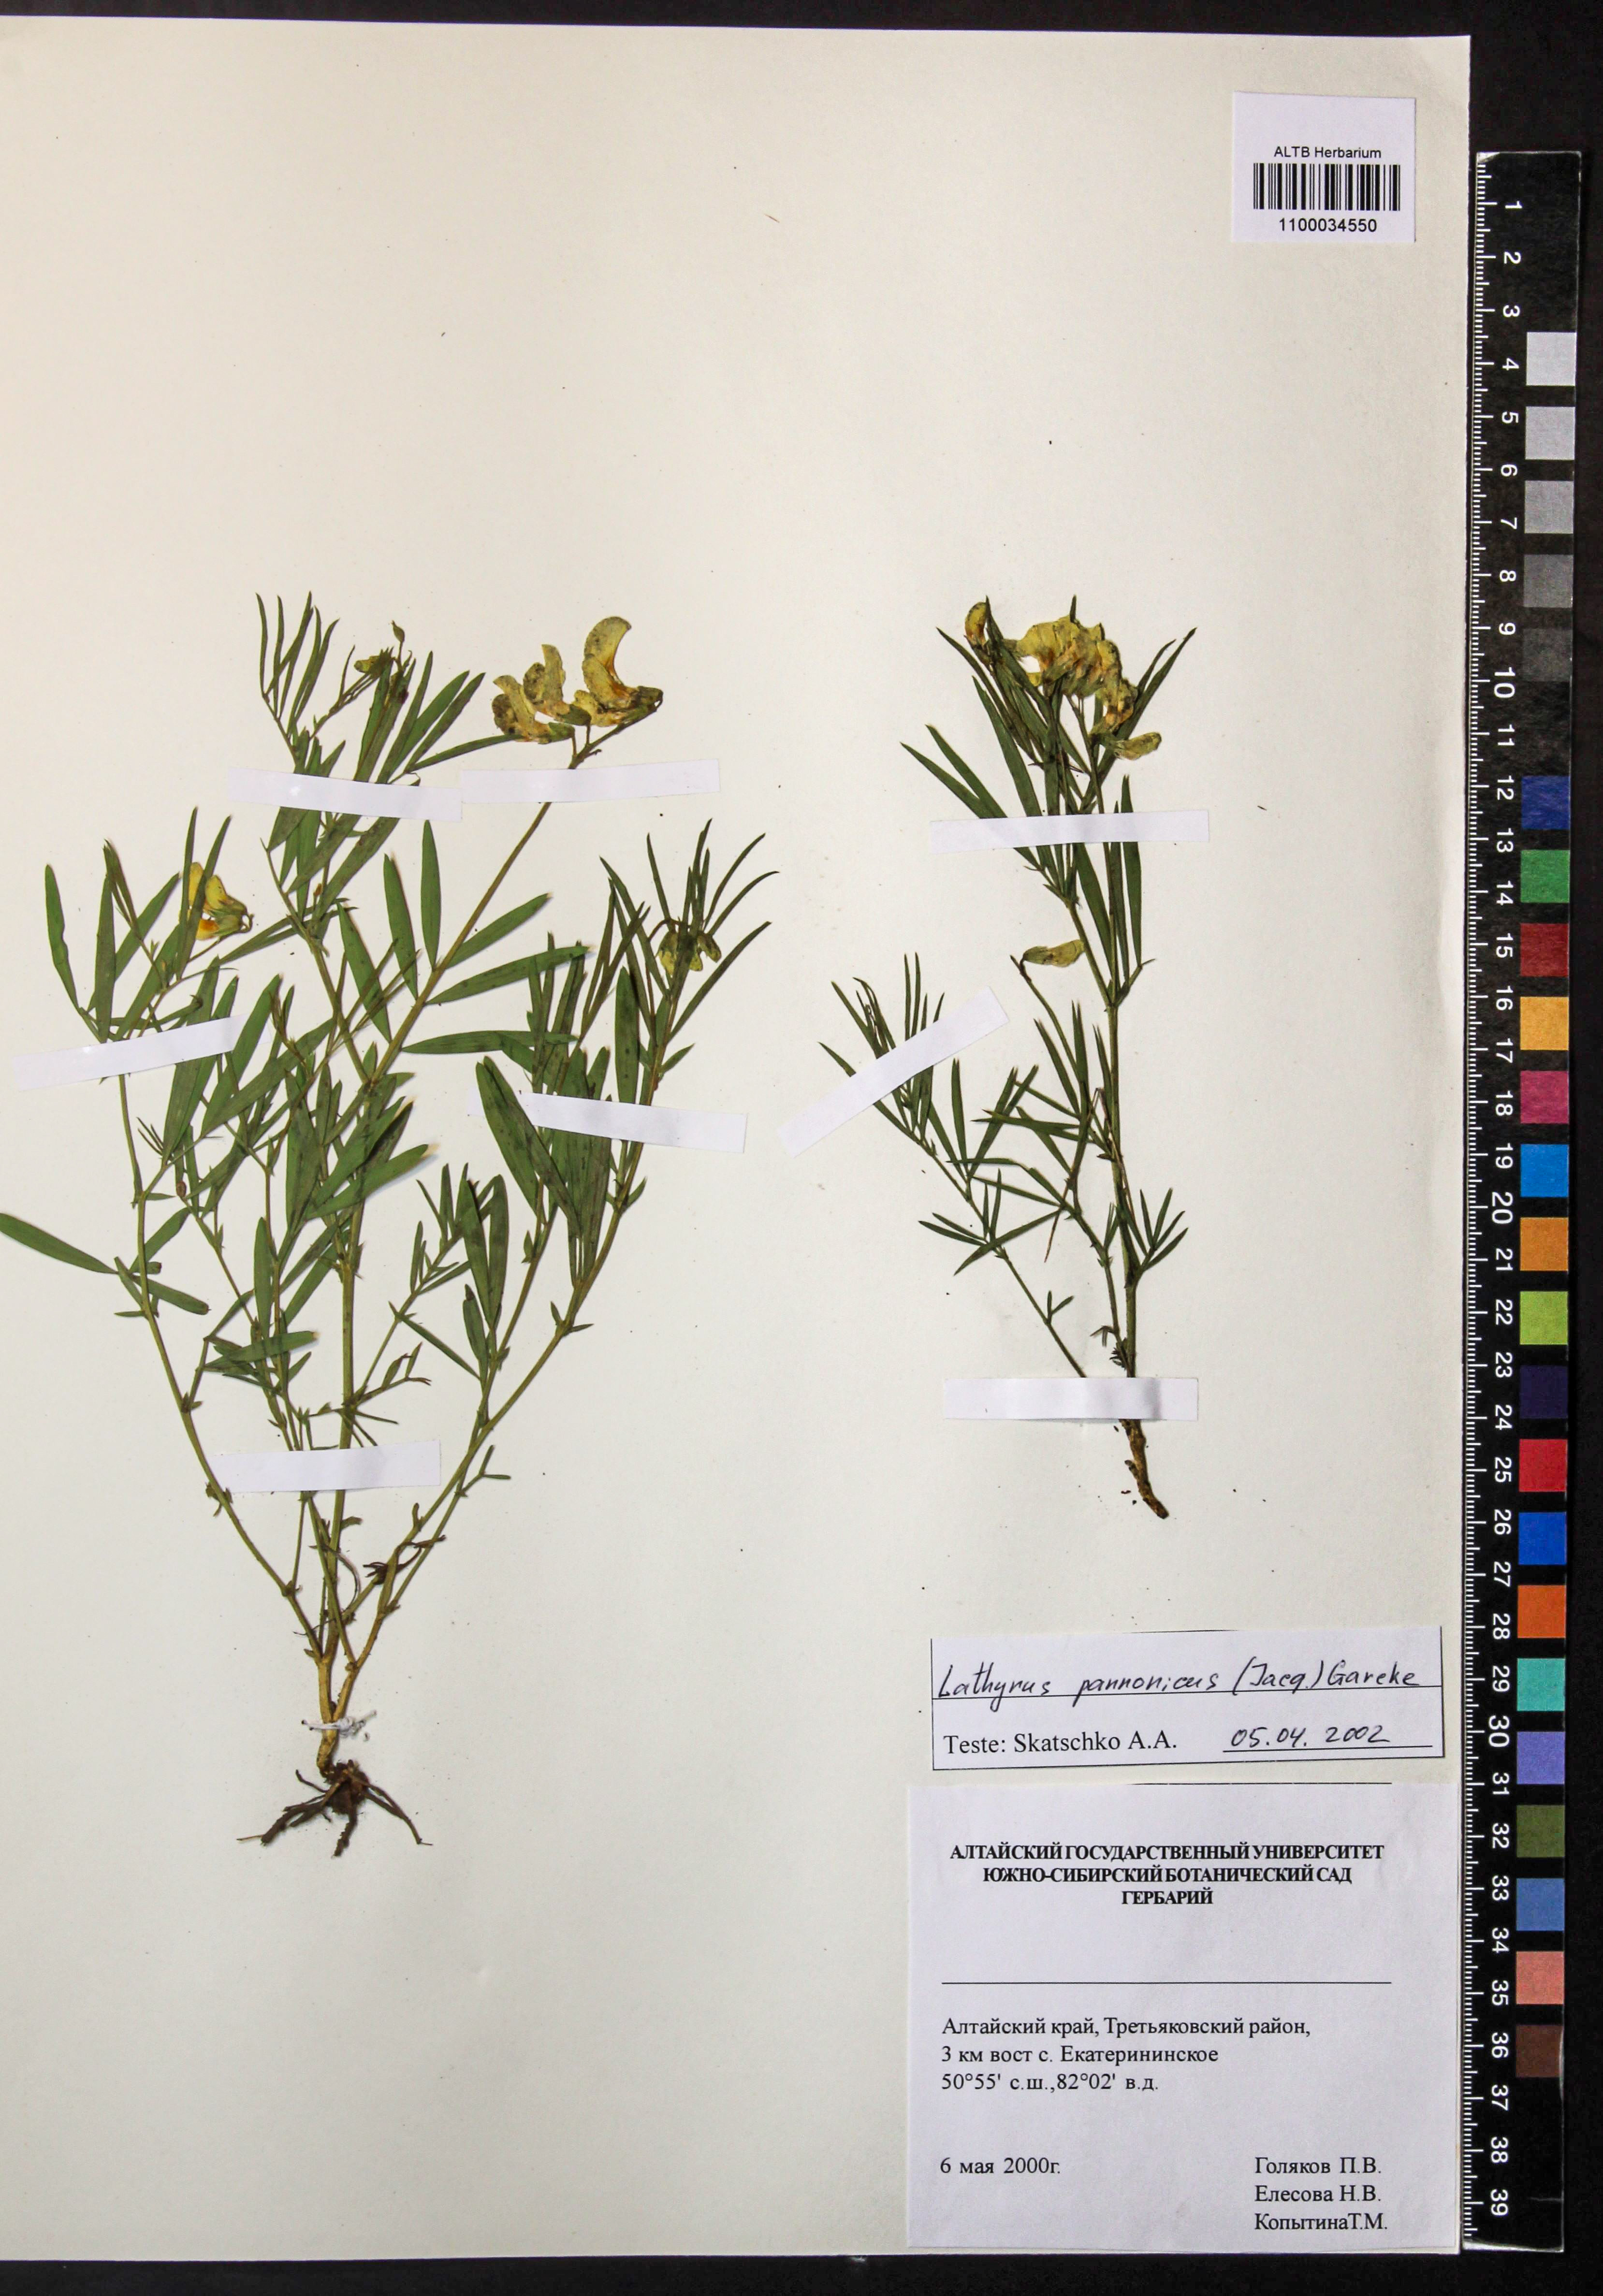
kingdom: Plantae
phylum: Tracheophyta
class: Magnoliopsida
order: Fabales
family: Fabaceae
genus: Lathyrus
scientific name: Lathyrus pannonicus
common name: Pea
